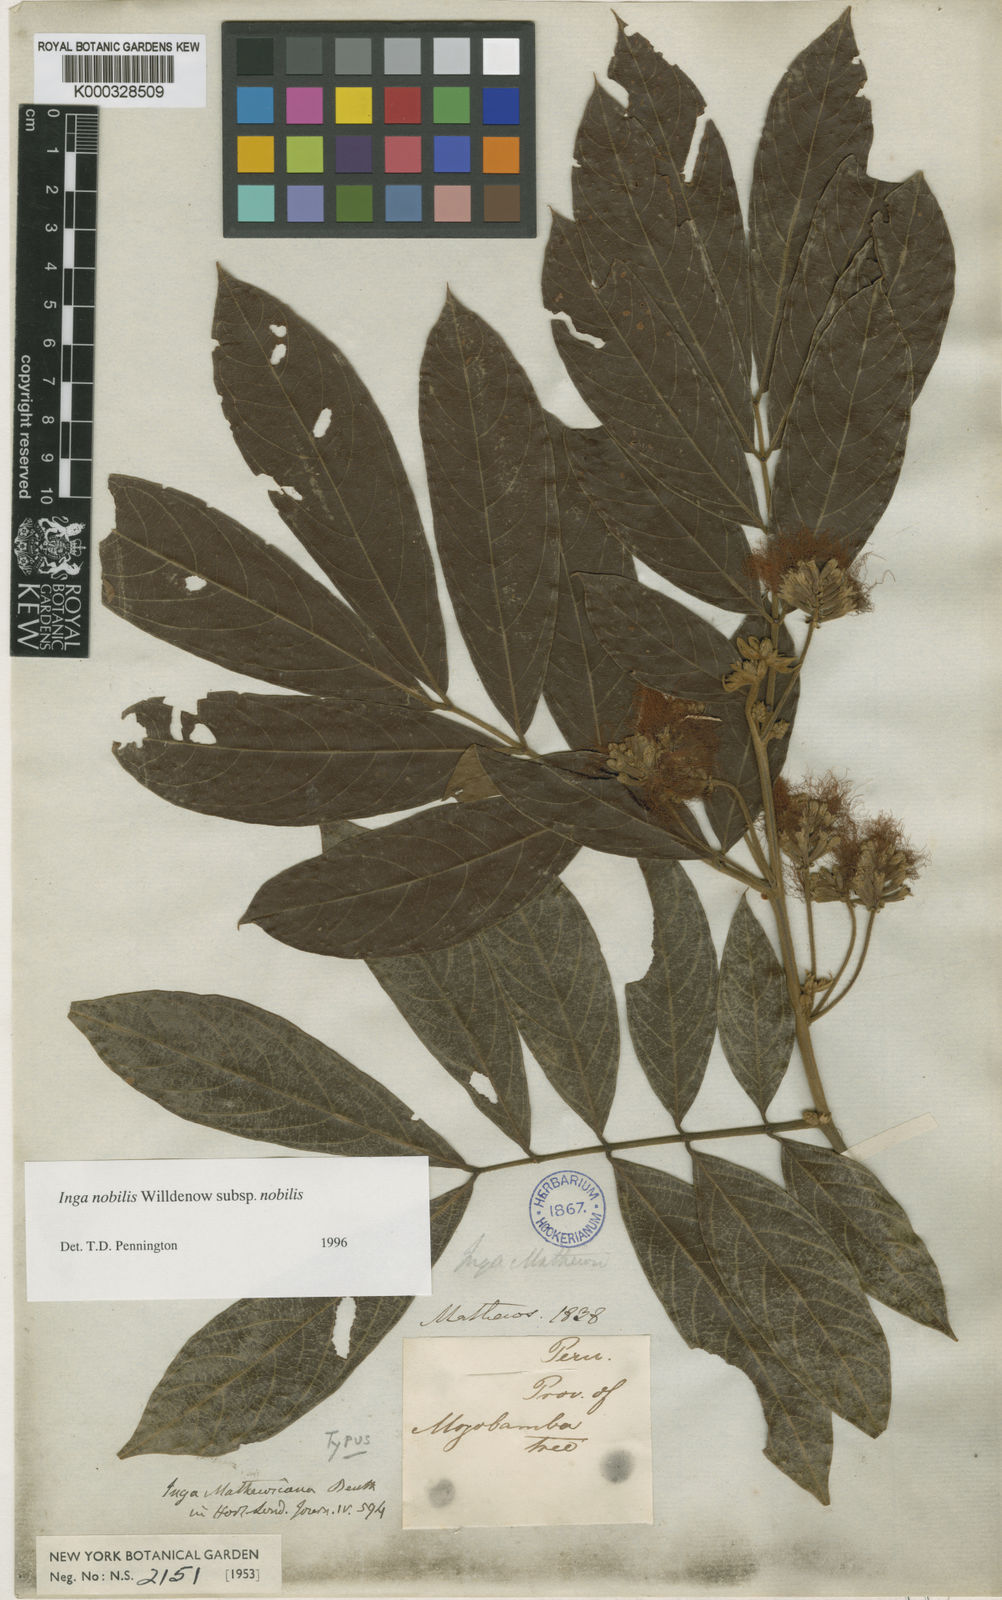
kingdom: Plantae
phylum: Tracheophyta
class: Magnoliopsida
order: Fabales
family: Fabaceae
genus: Inga
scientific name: Inga nobilis
